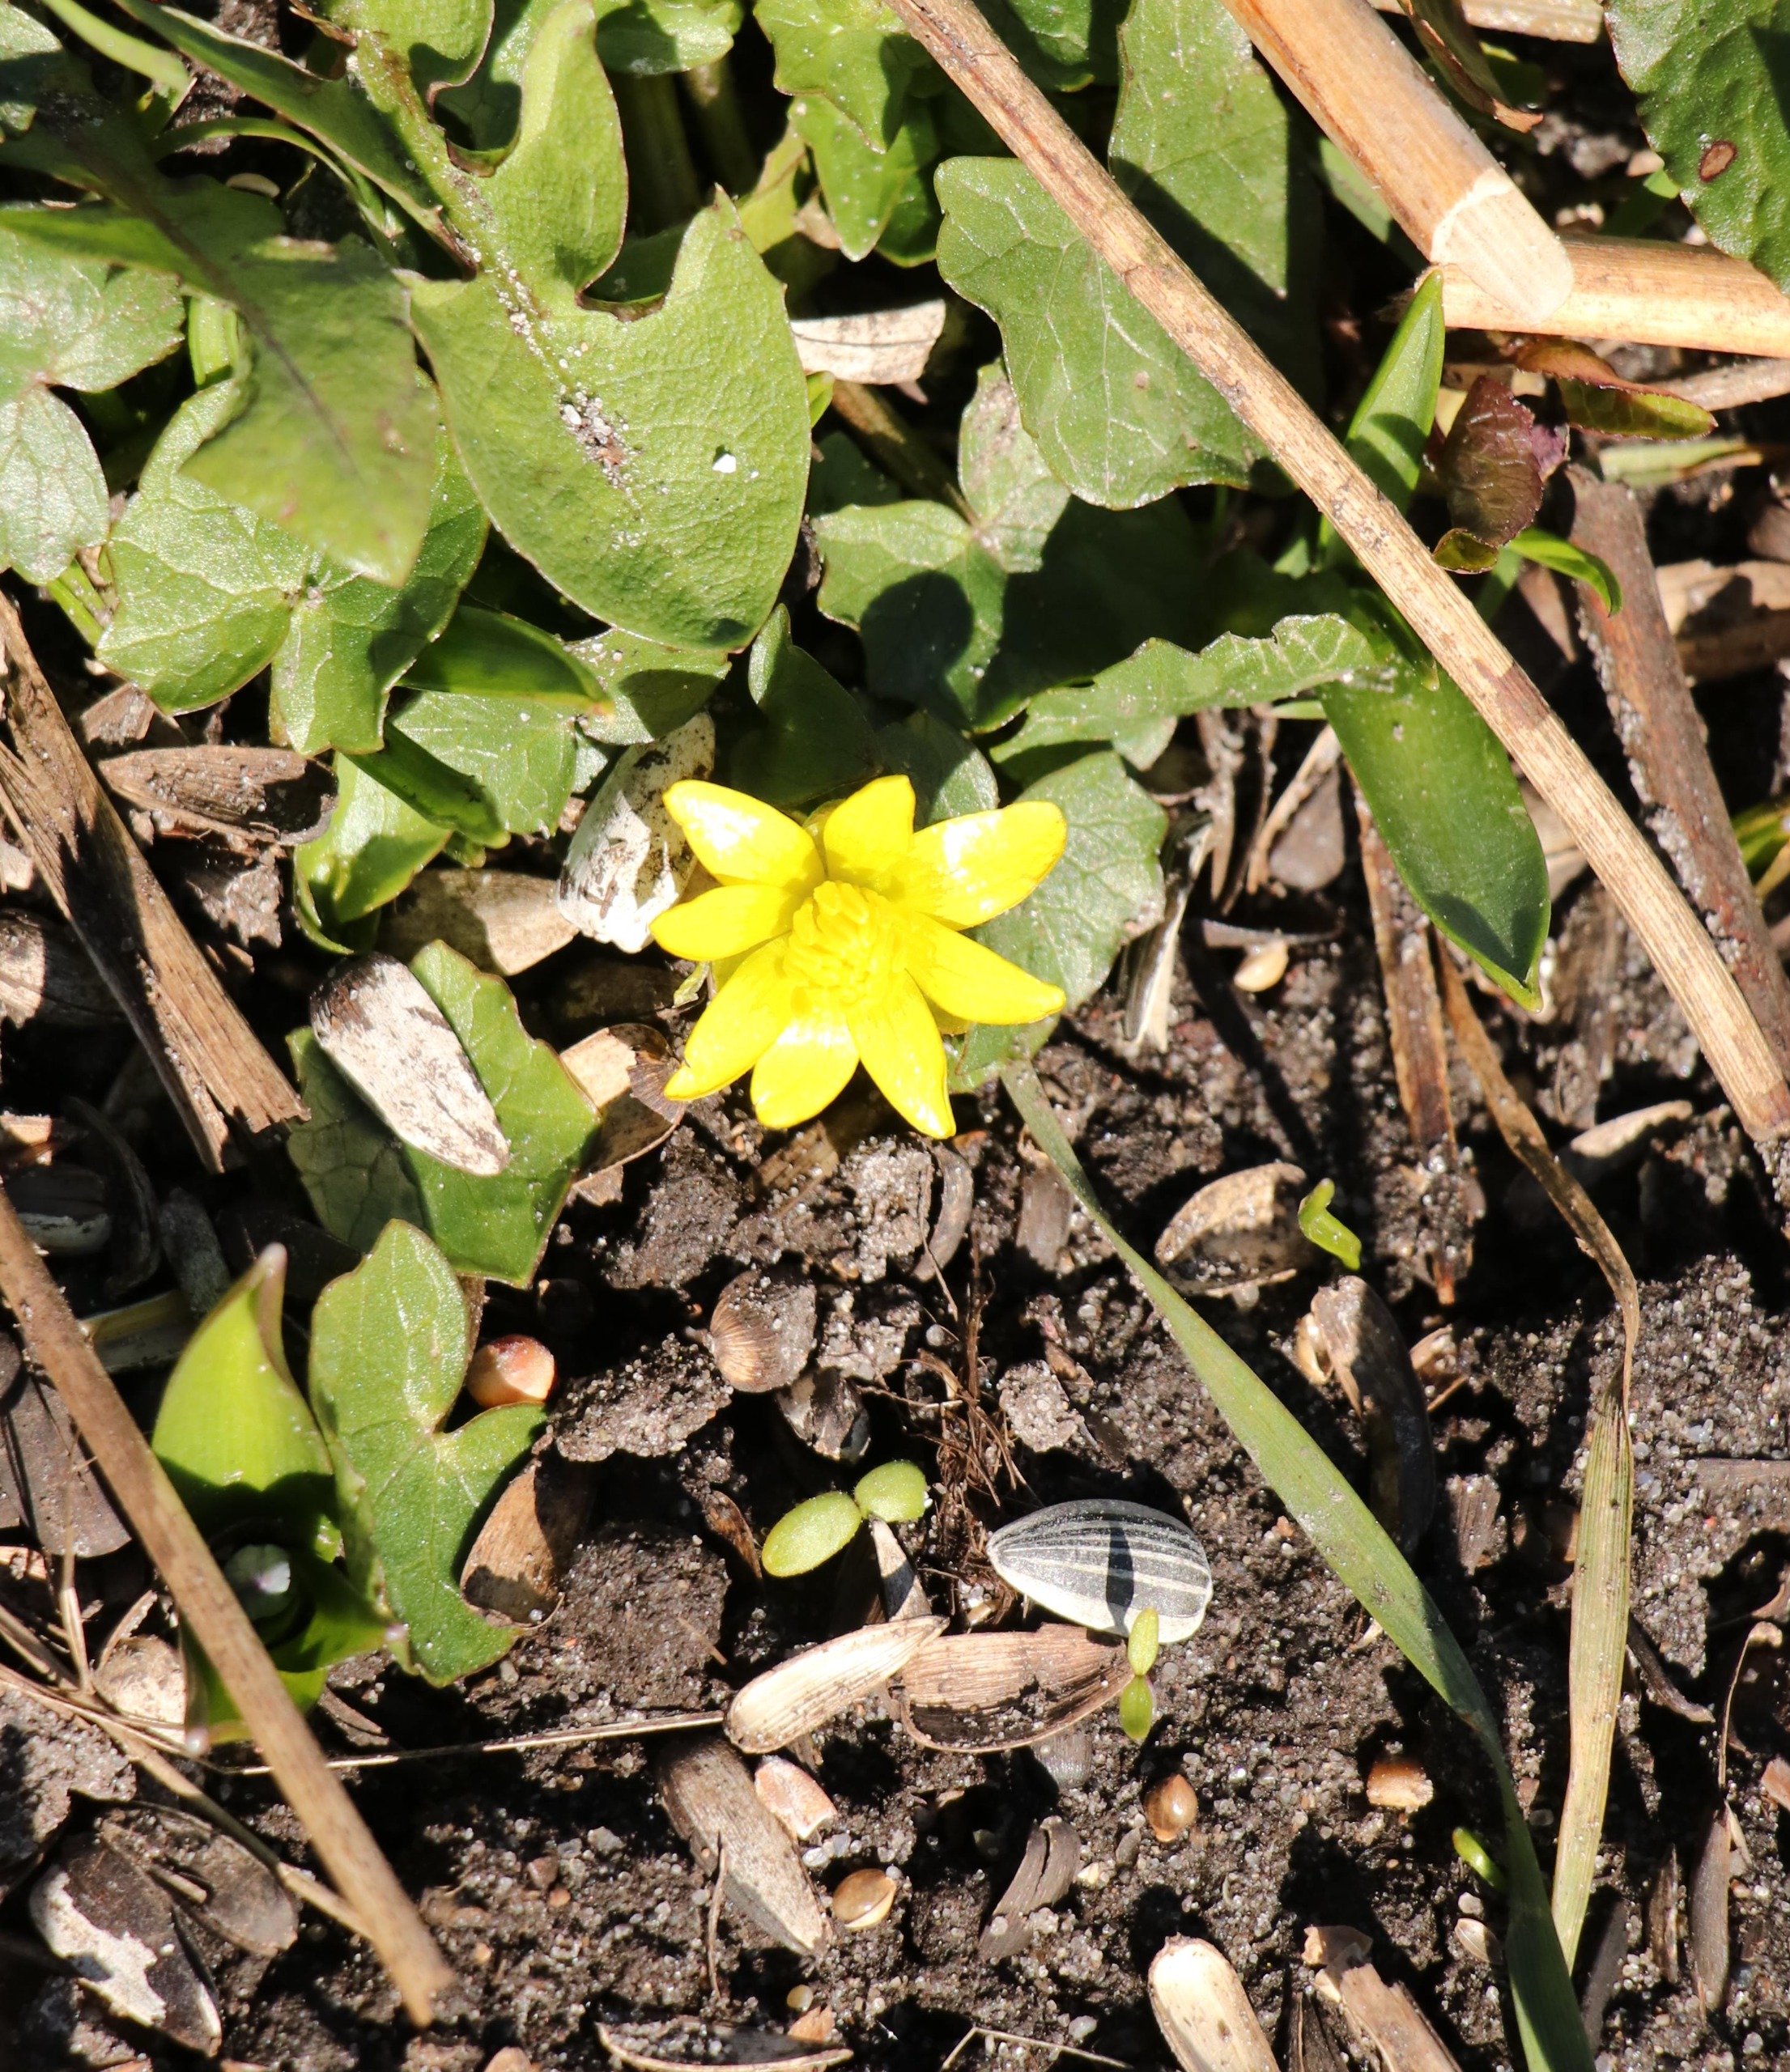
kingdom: Plantae
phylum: Tracheophyta
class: Magnoliopsida
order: Ranunculales
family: Ranunculaceae
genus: Ficaria
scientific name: Ficaria verna
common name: Vorterod
